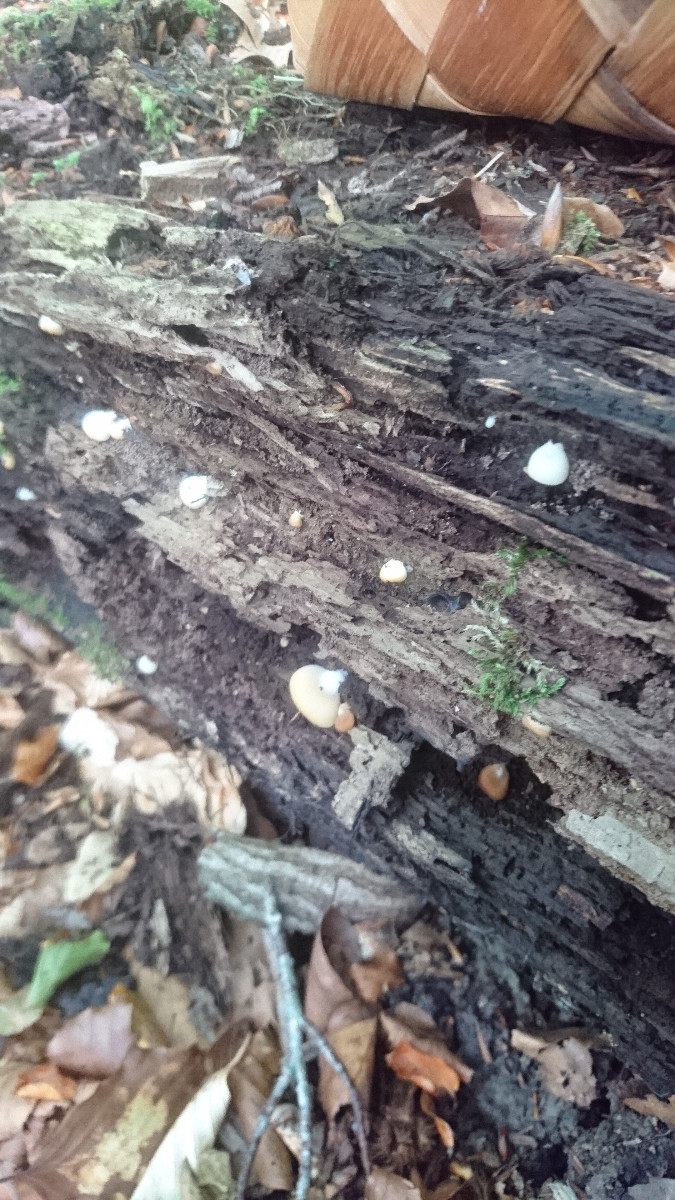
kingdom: Fungi
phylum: Basidiomycota
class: Agaricomycetes
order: Agaricales
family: Crepidotaceae
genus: Crepidotus
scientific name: Crepidotus applanatus
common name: tvefarvet muslingesvamp
